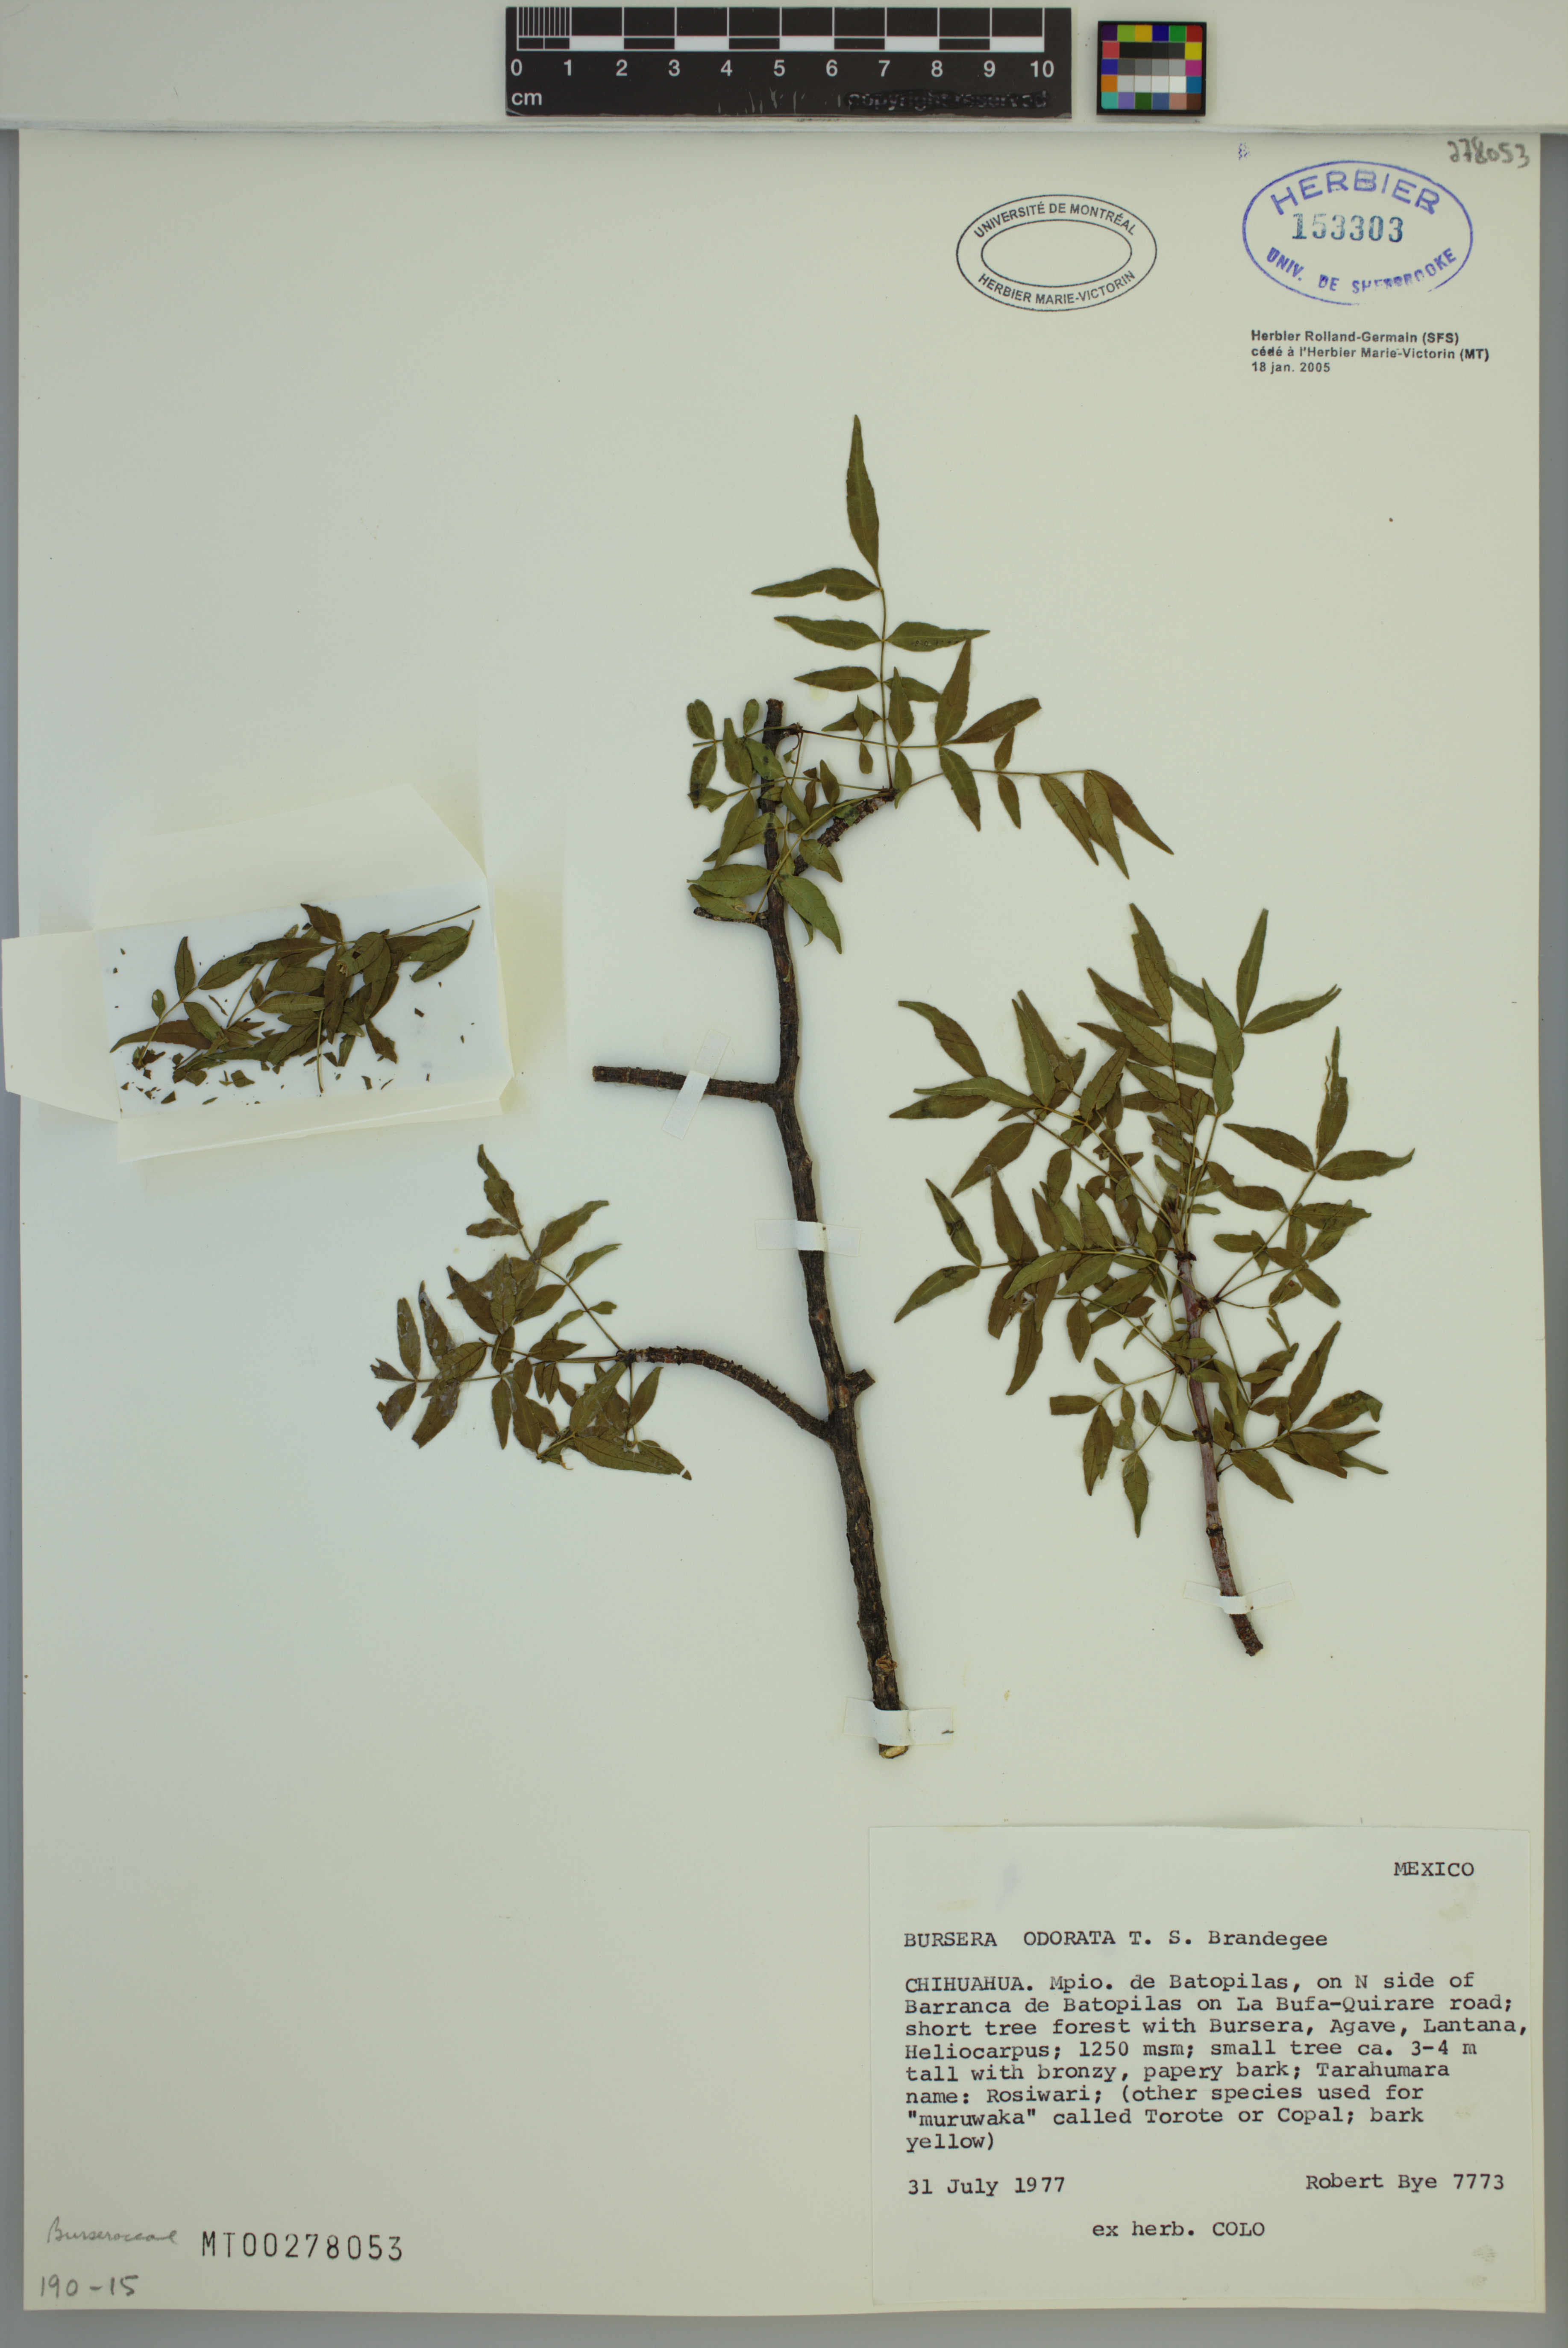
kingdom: Plantae
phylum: Tracheophyta
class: Magnoliopsida
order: Sapindales
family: Burseraceae
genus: Bursera
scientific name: Bursera odorata
